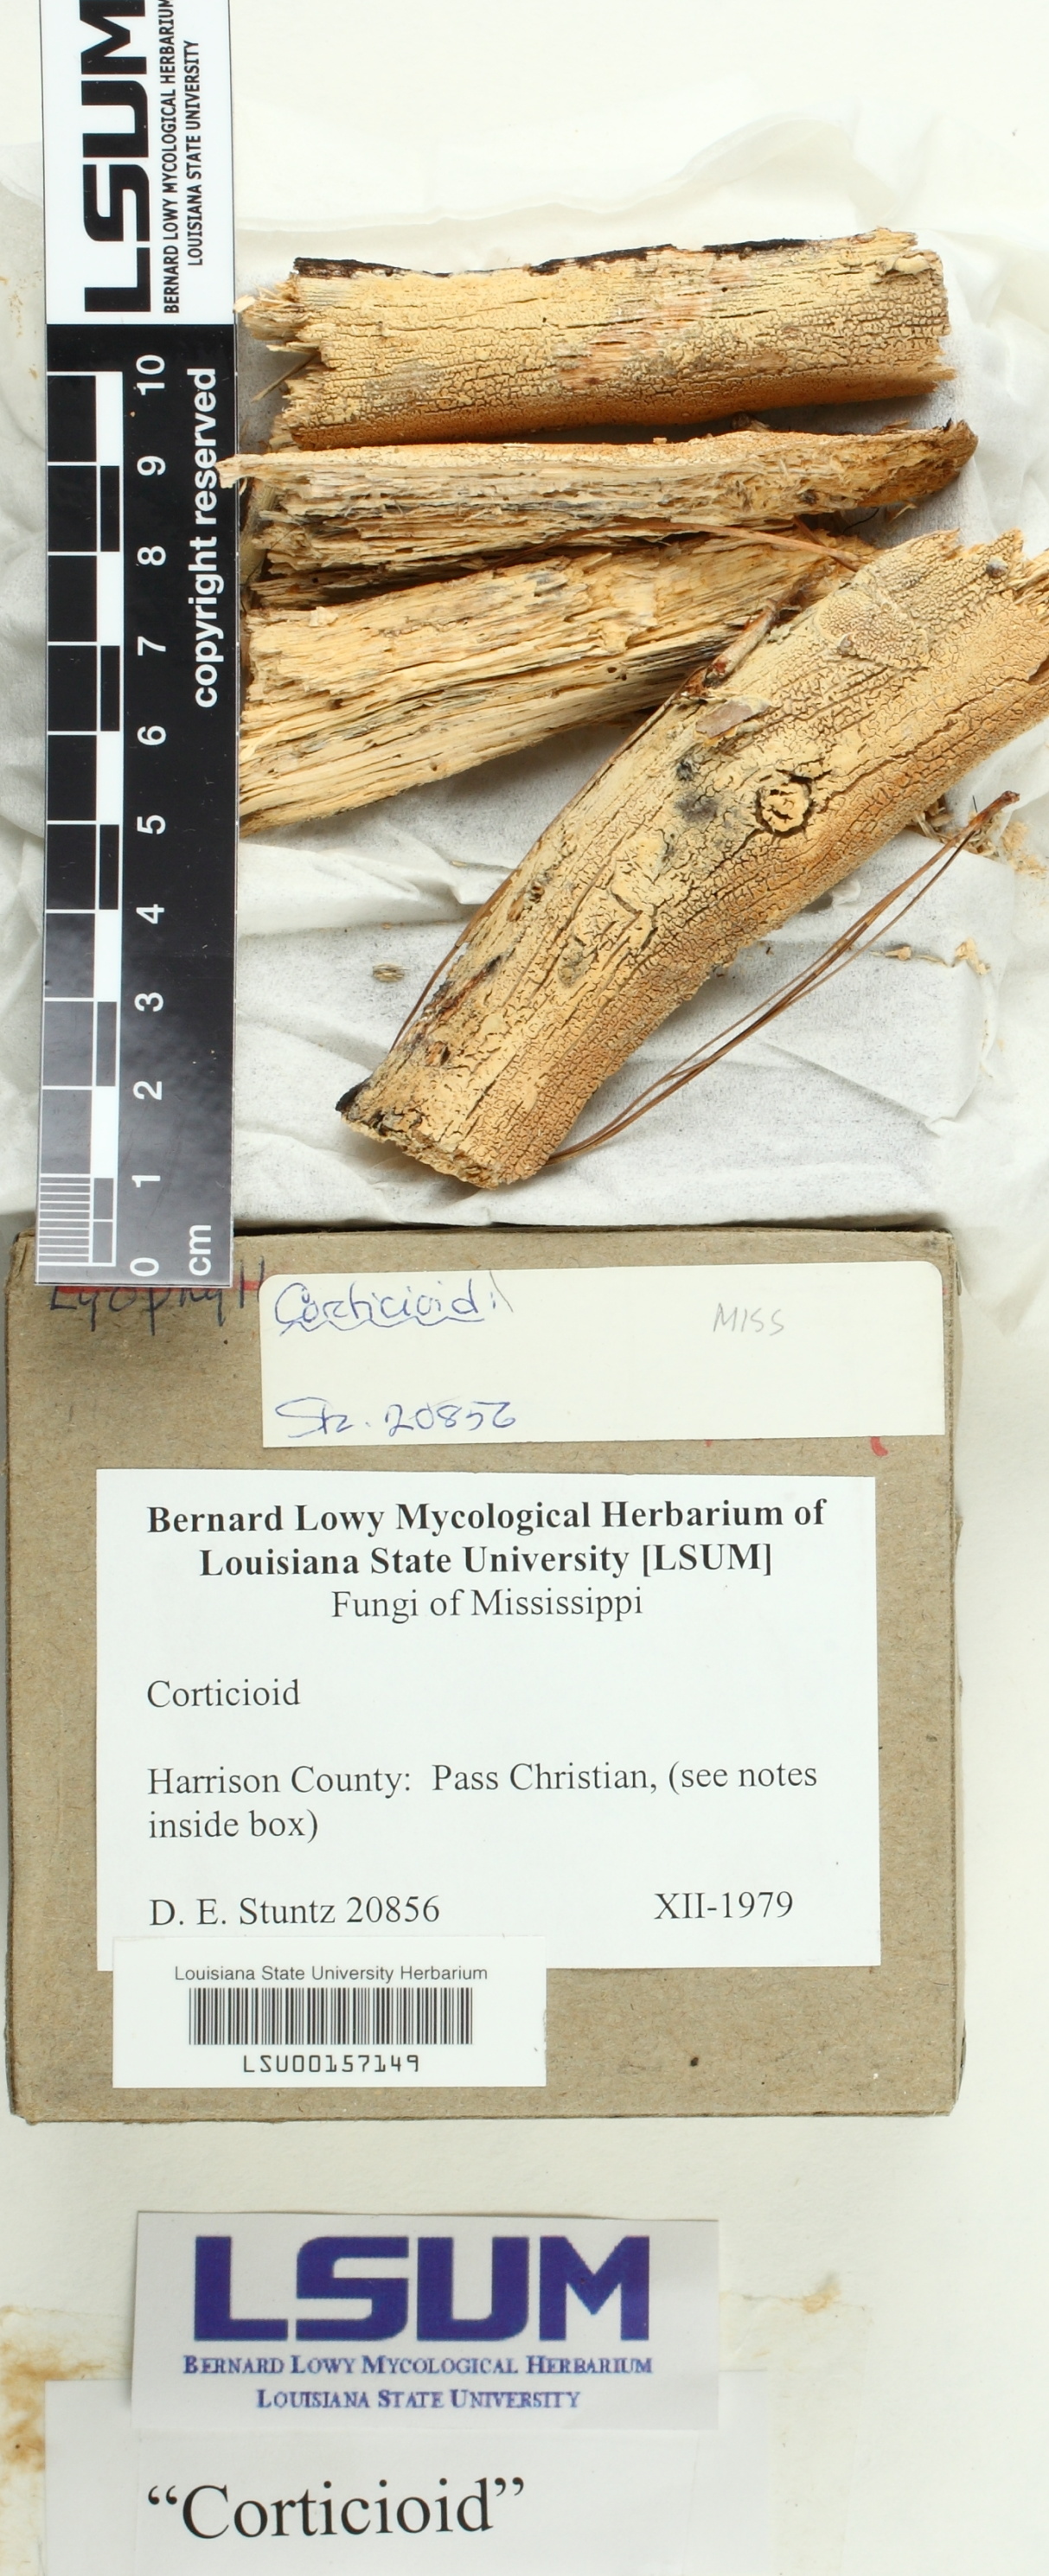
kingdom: Fungi
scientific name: Fungi
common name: Fungi
